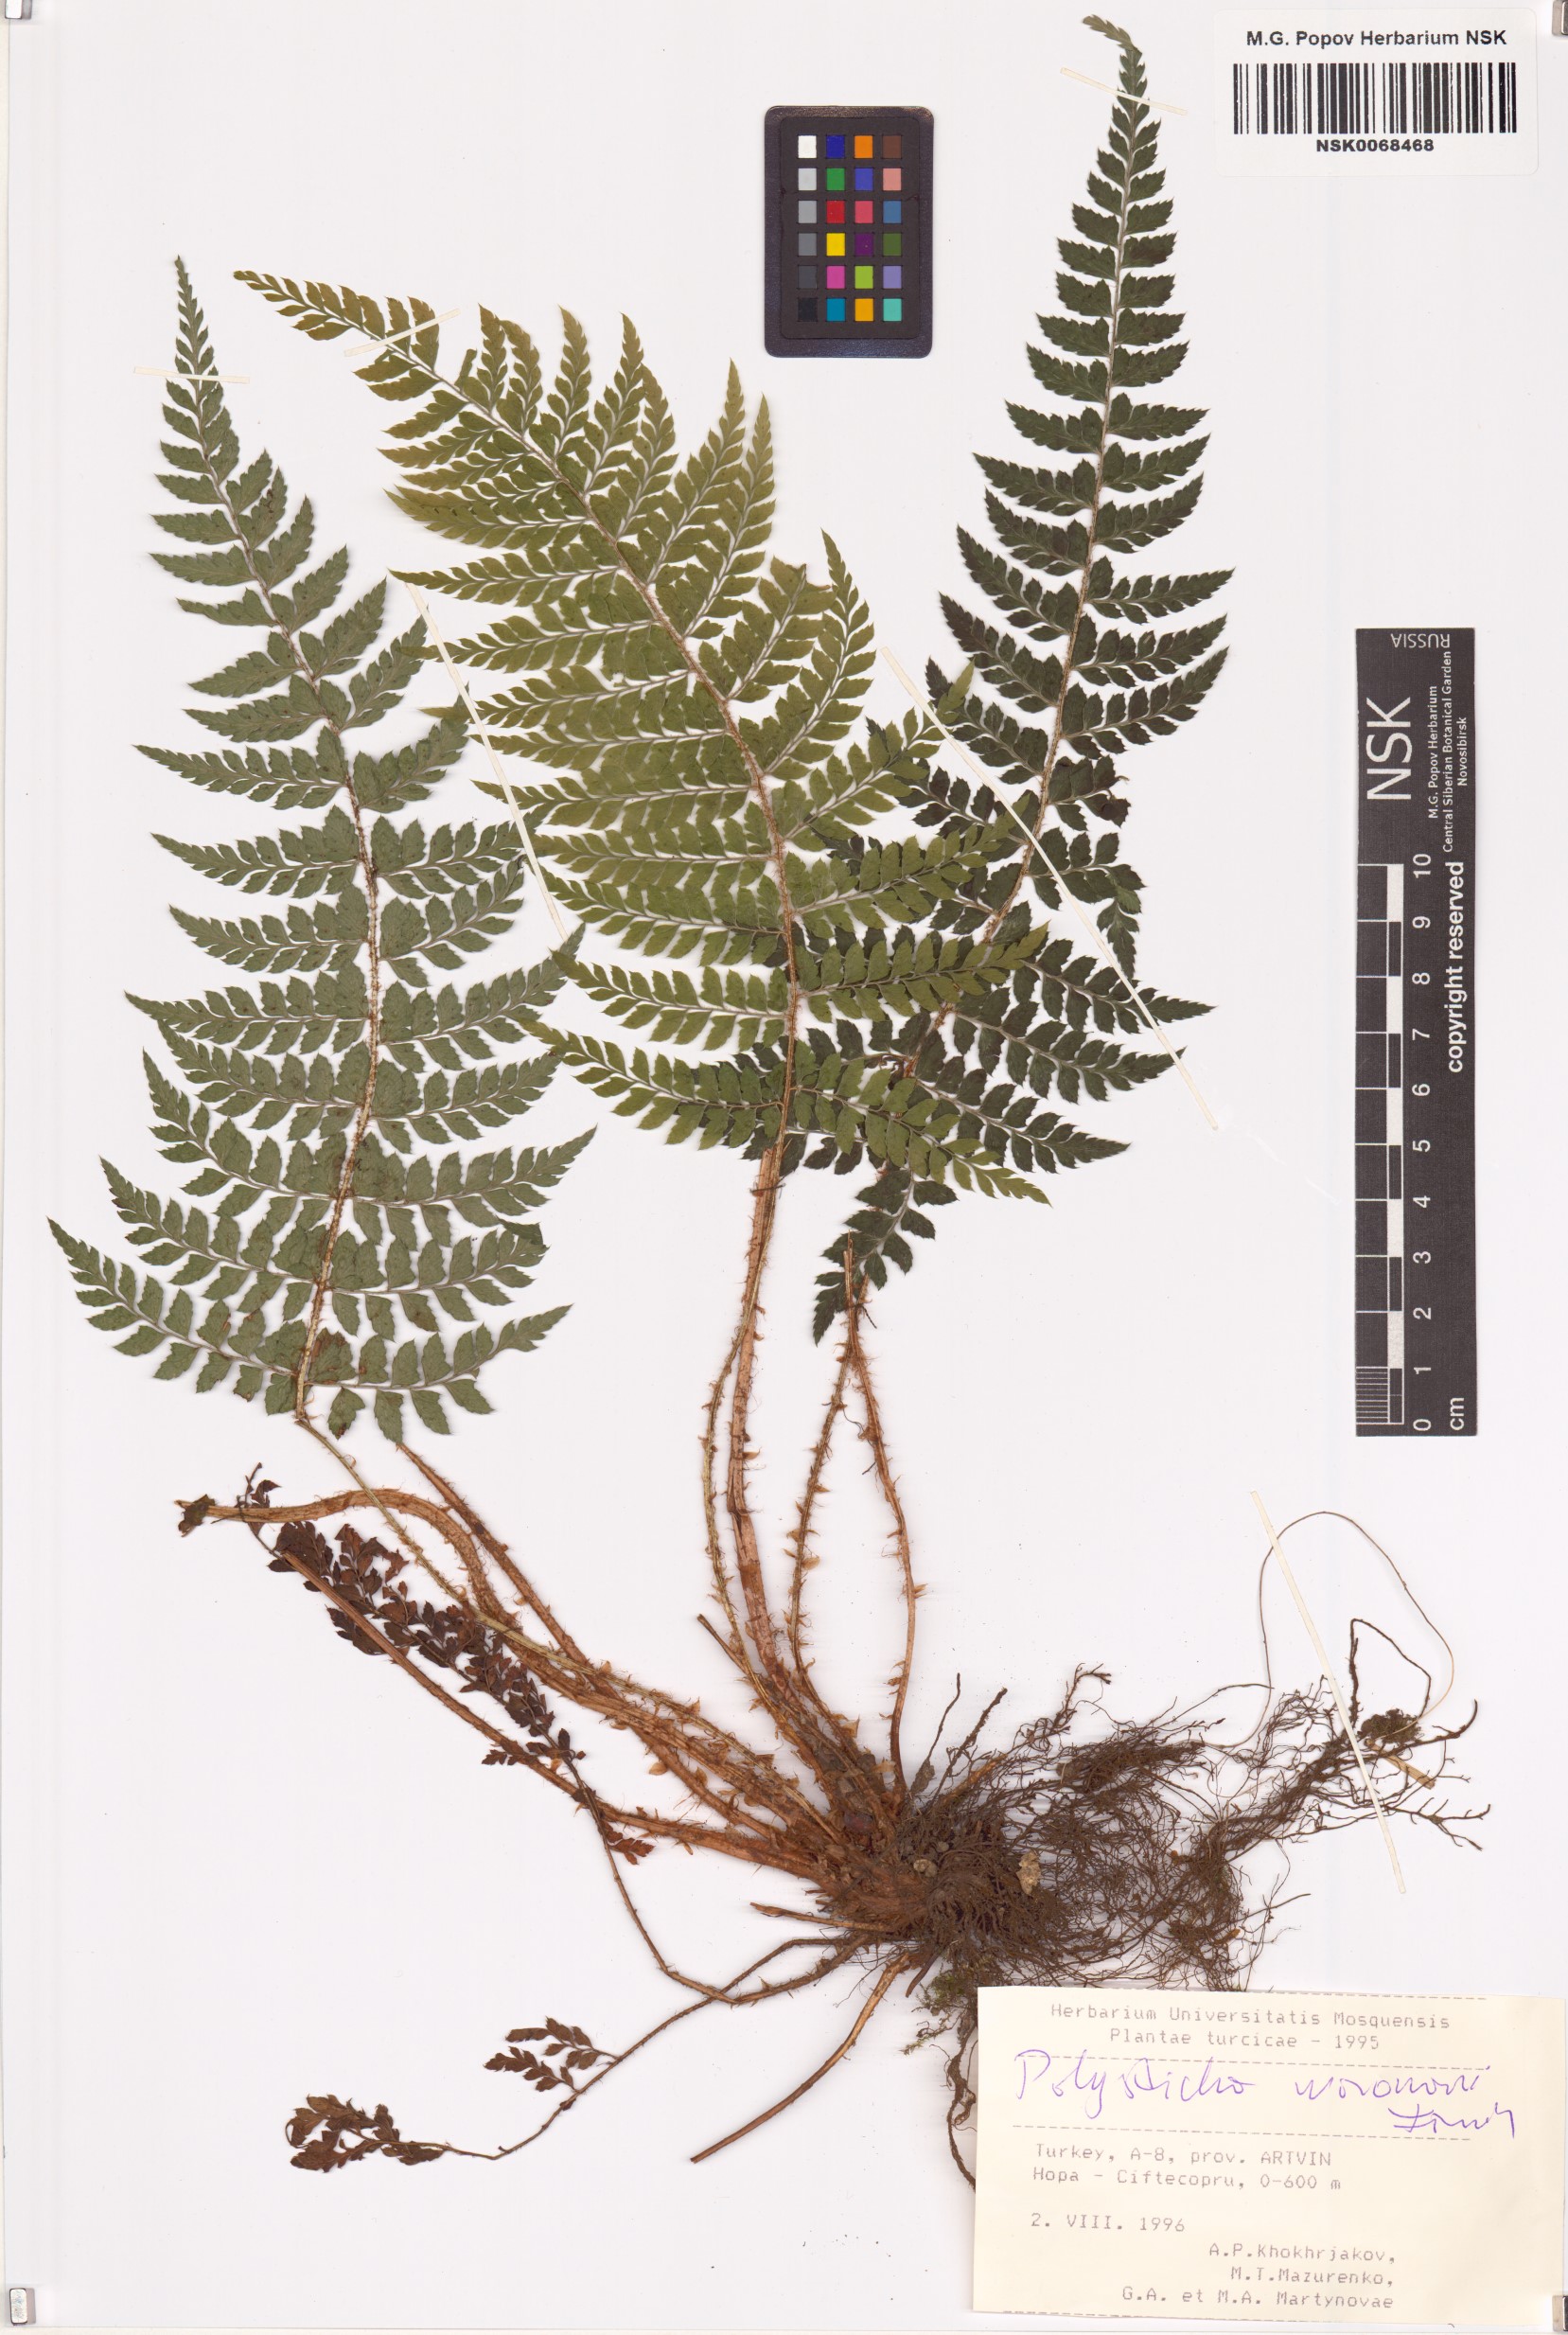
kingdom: Plantae
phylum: Tracheophyta
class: Polypodiopsida
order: Polypodiales
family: Dryopteridaceae
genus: Polystichum
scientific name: Polystichum woronowii
